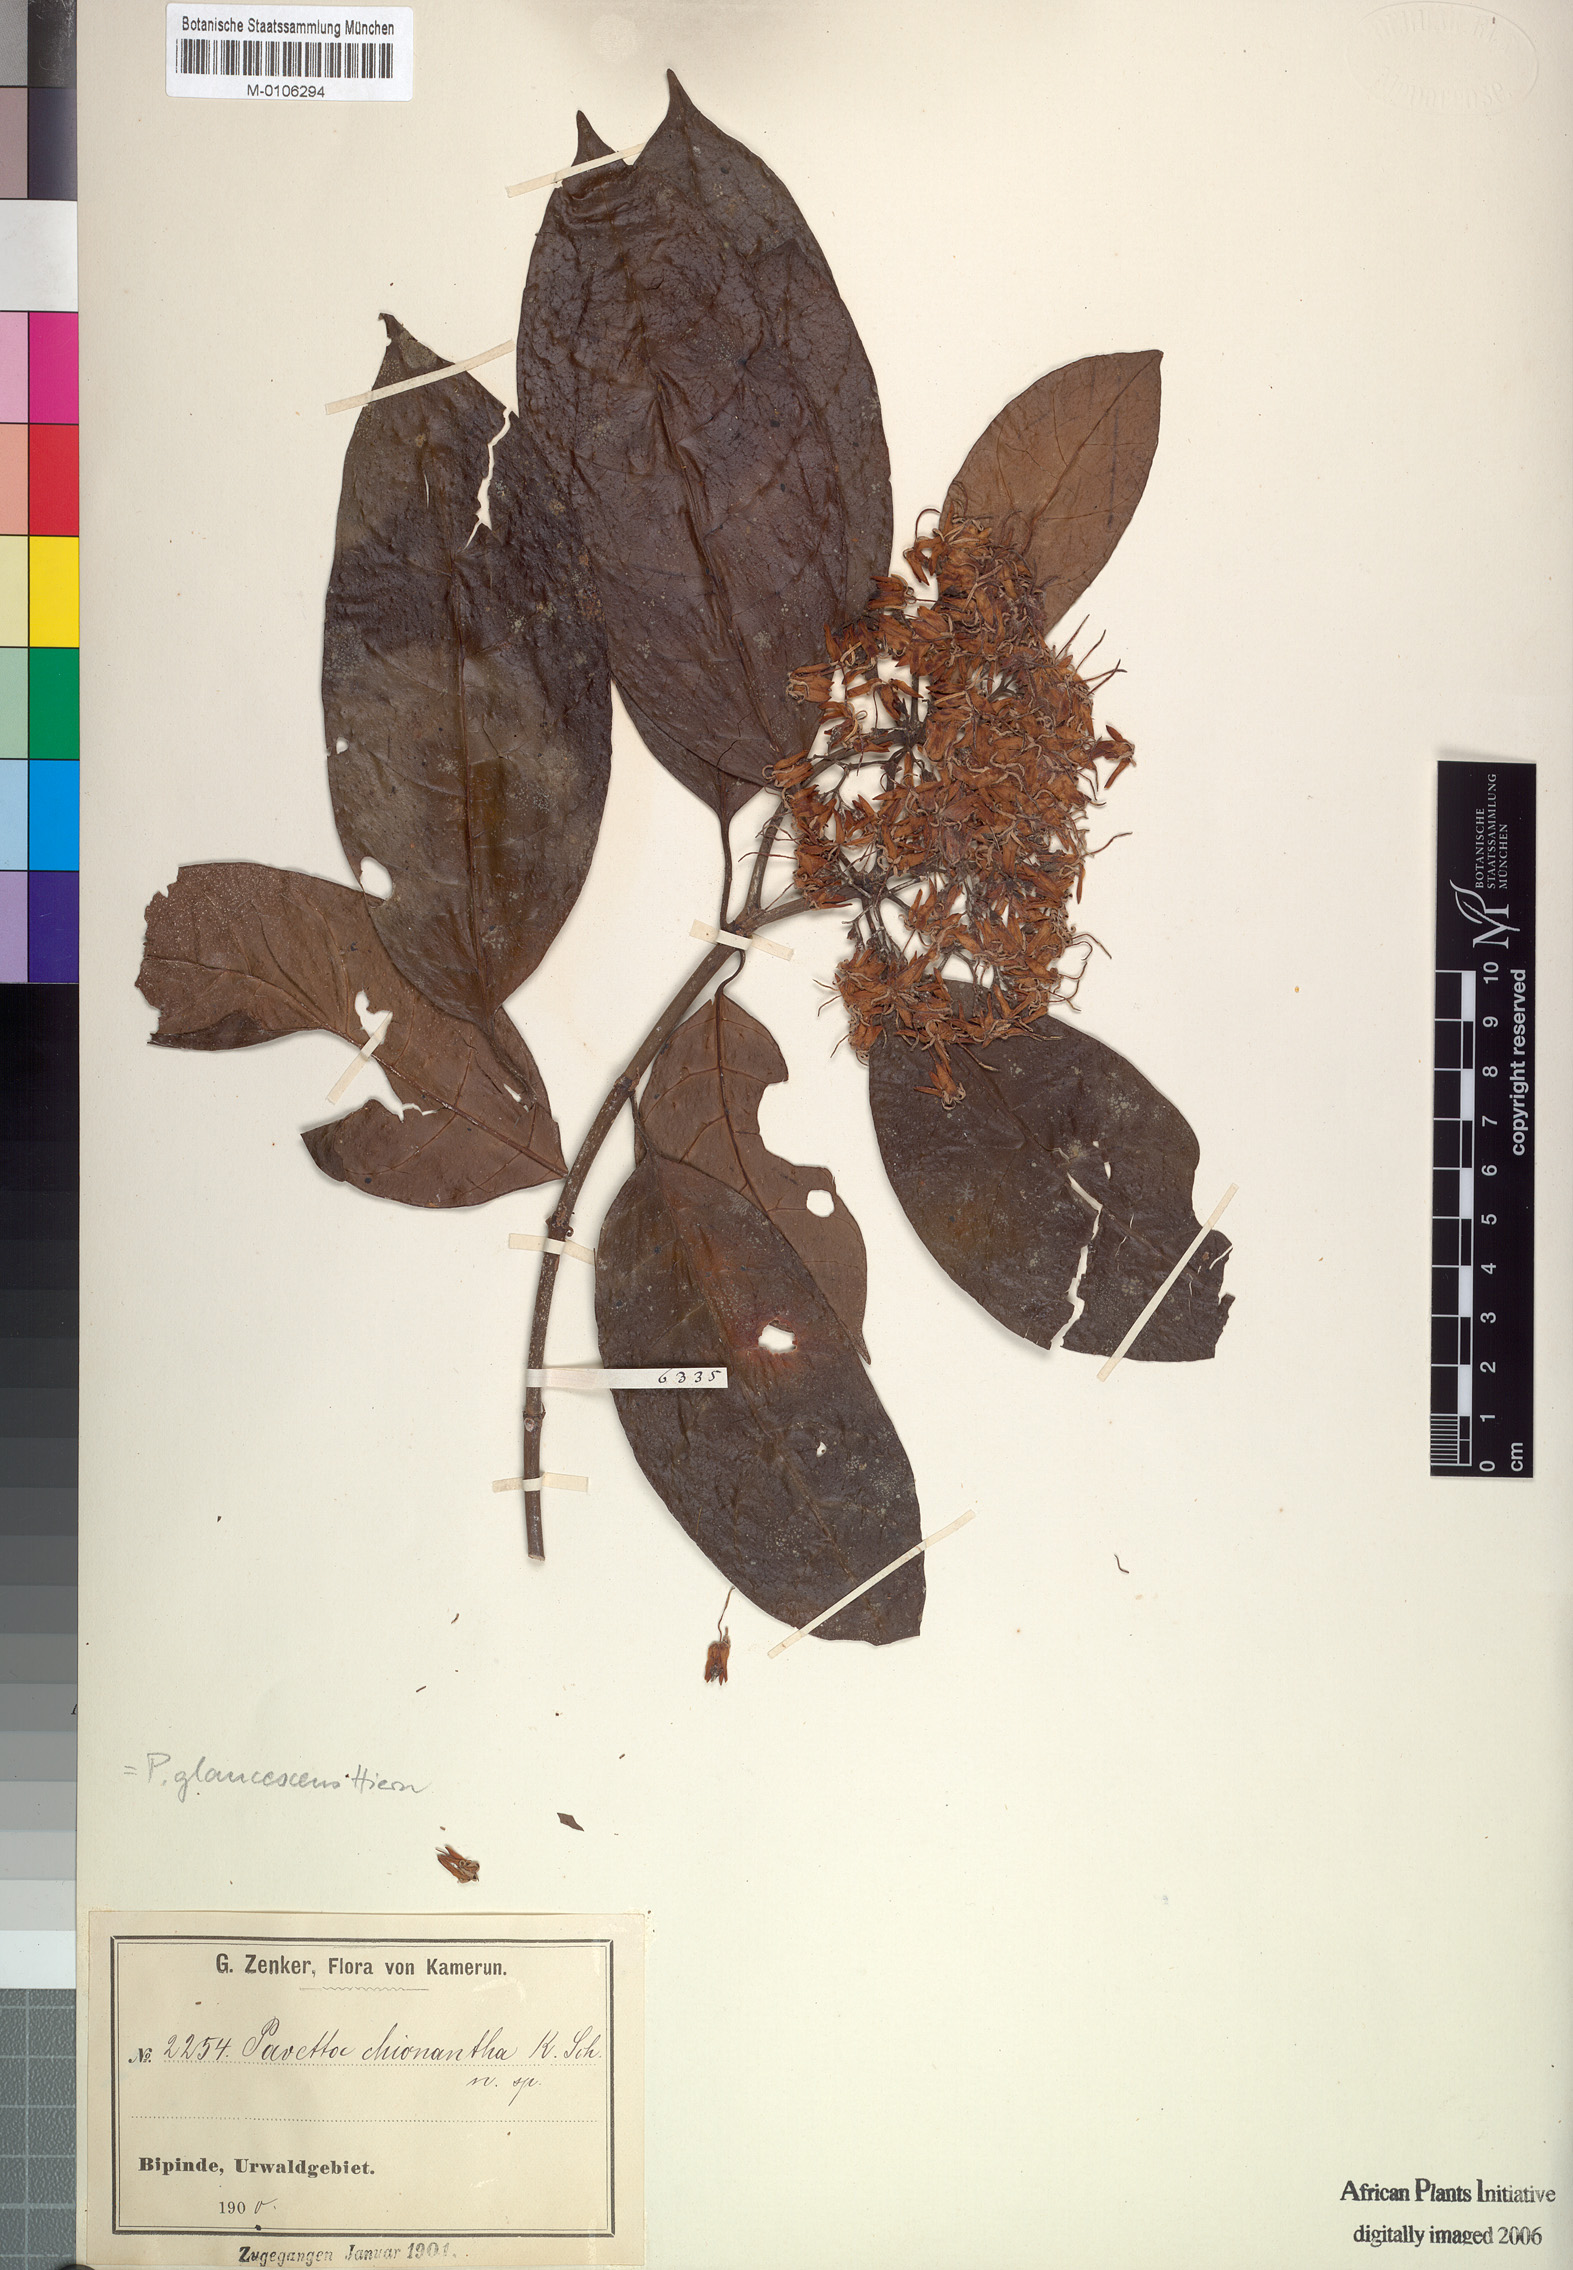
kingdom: Plantae
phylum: Tracheophyta
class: Magnoliopsida
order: Gentianales
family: Rubiaceae
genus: Pavetta
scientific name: Pavetta owariensis
